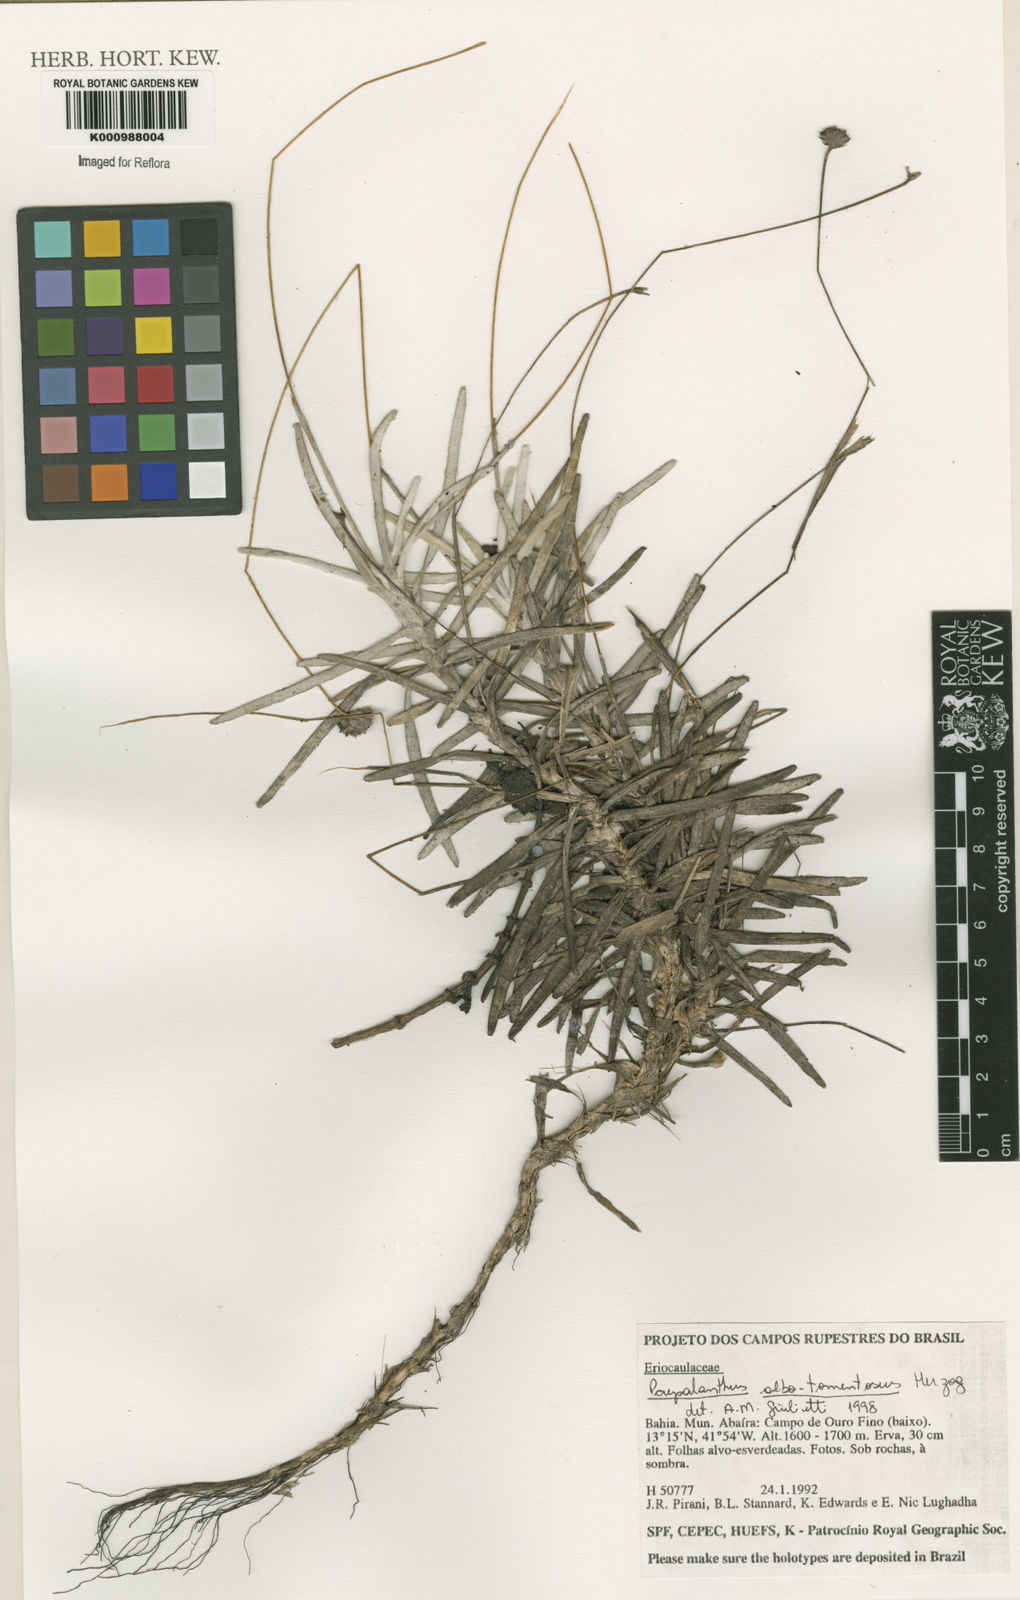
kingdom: Plantae
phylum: Tracheophyta
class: Liliopsida
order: Poales
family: Eriocaulaceae
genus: Paepalanthus
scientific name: Paepalanthus albotomentosus
